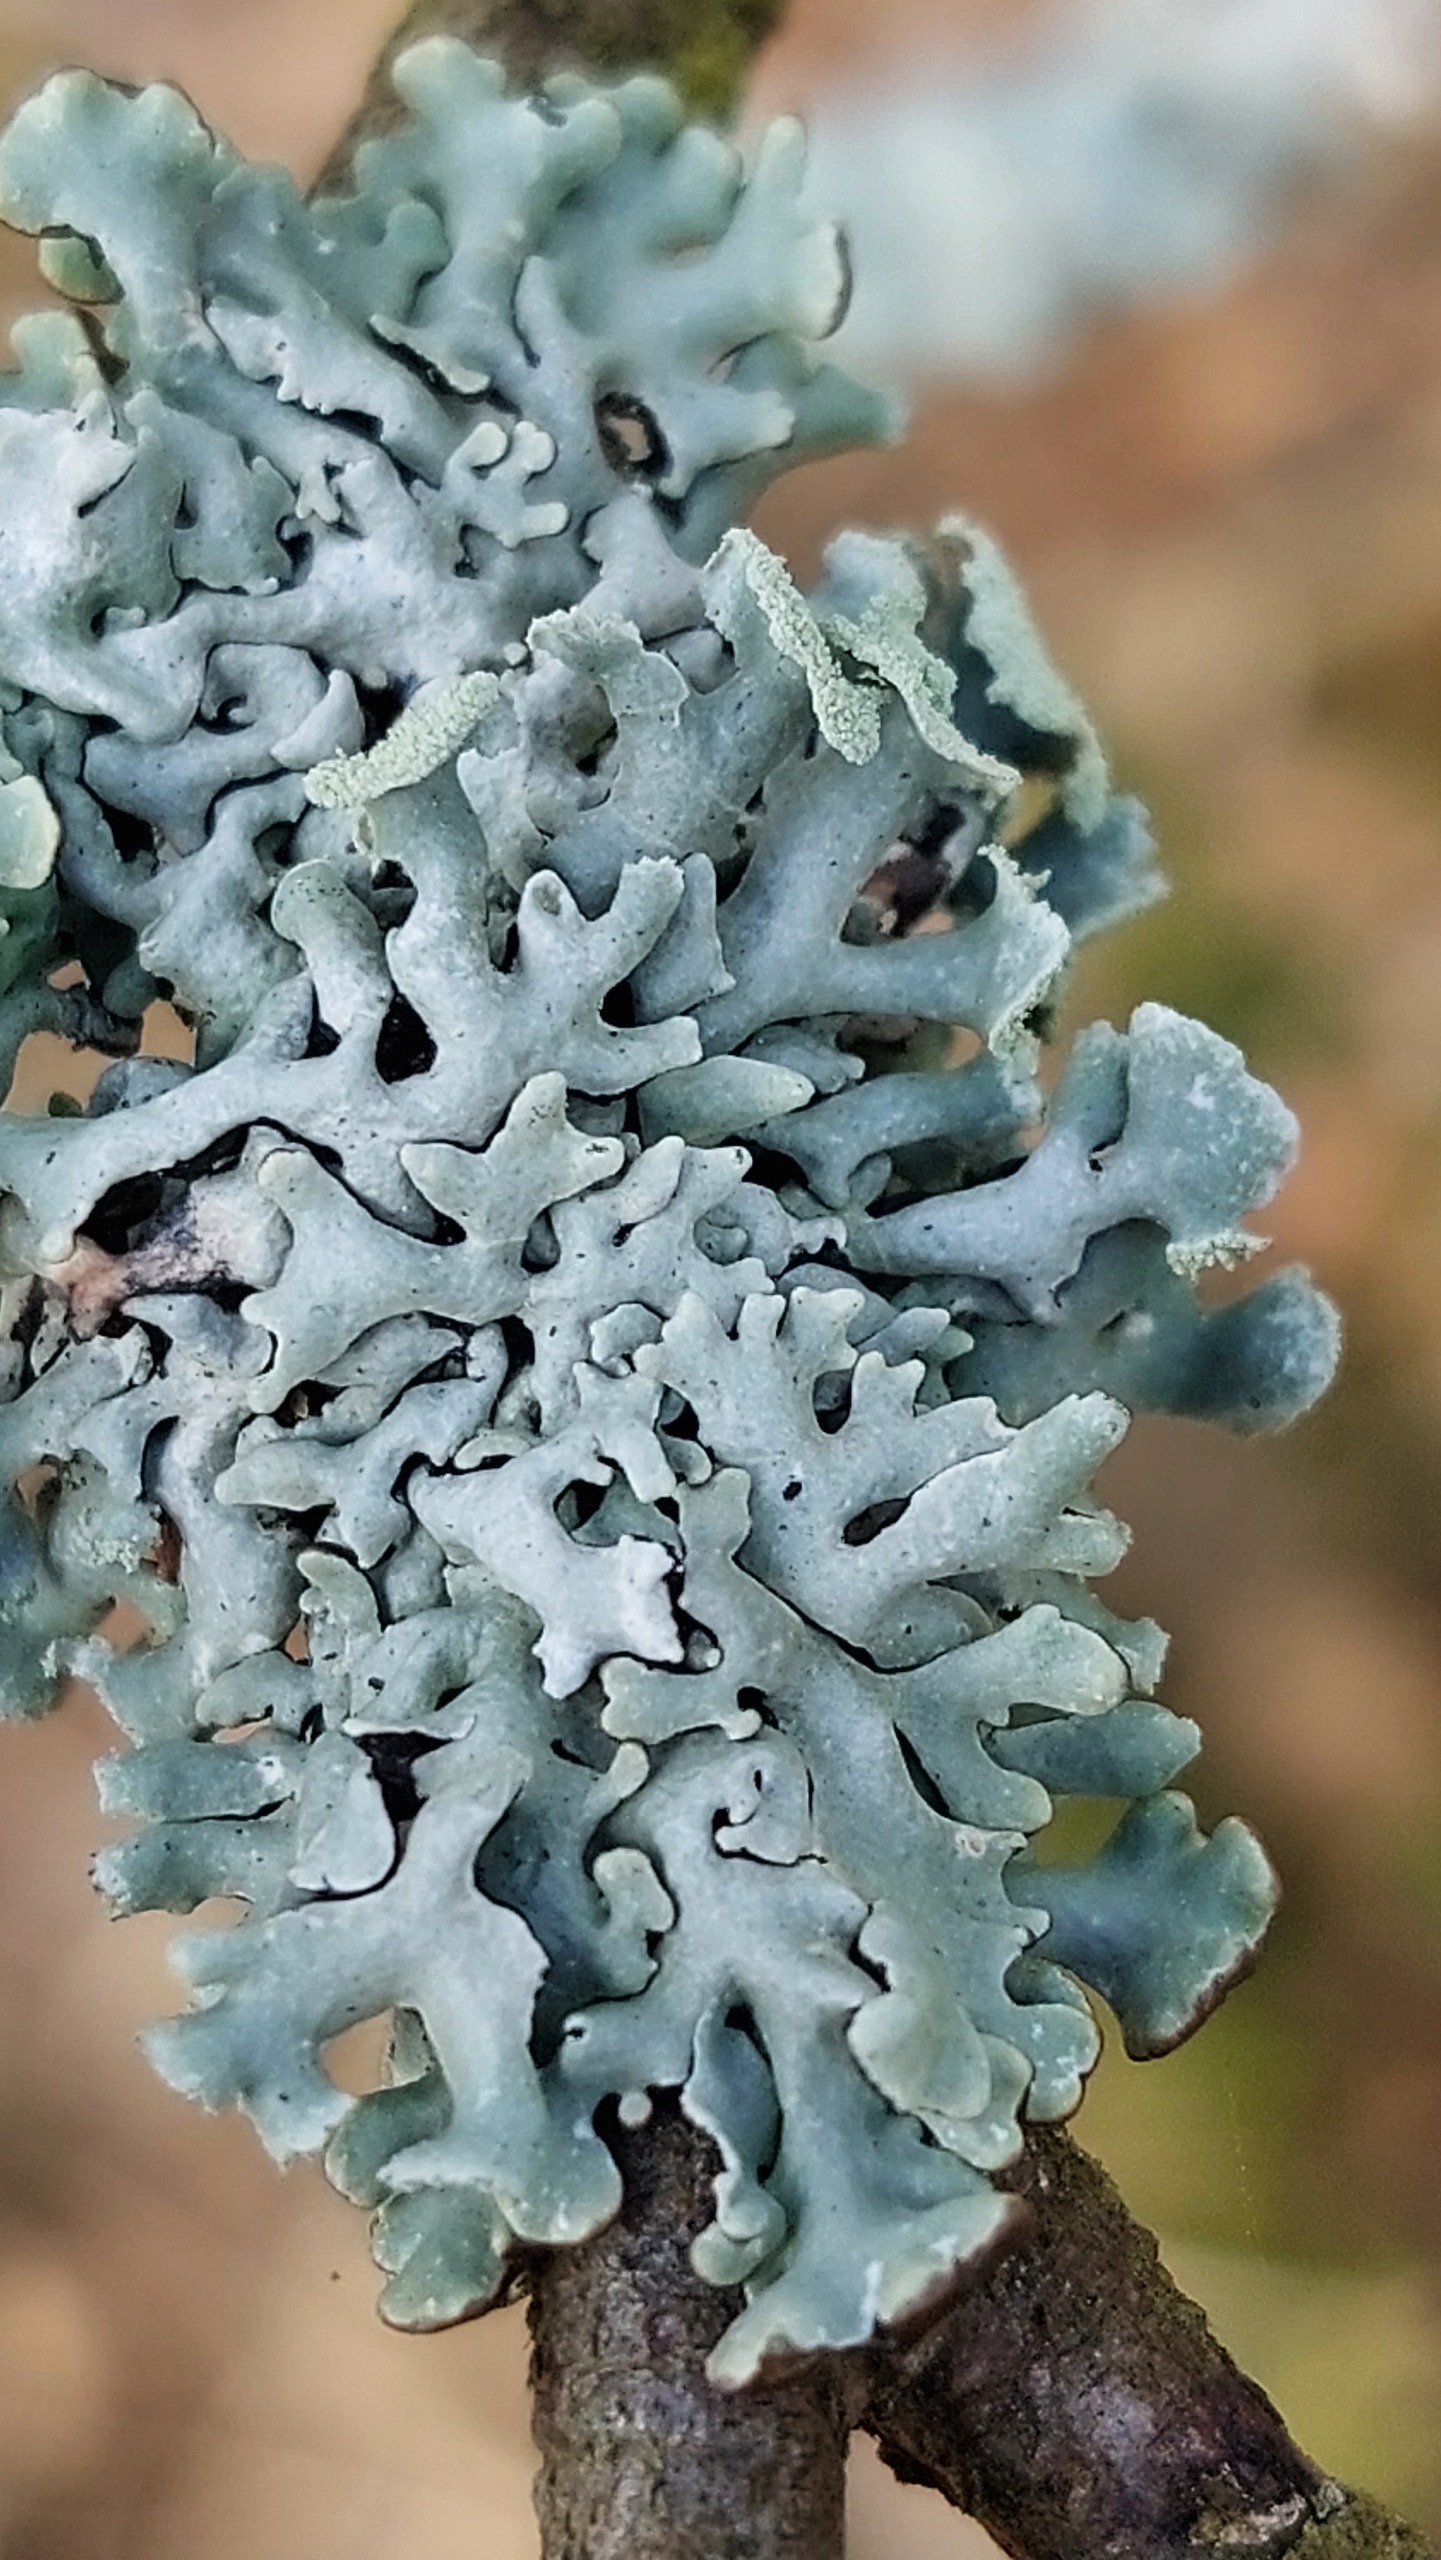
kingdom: Fungi
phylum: Ascomycota
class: Lecanoromycetes
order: Lecanorales
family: Parmeliaceae
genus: Hypogymnia
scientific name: Hypogymnia physodes
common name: Almindelig kvistlav
